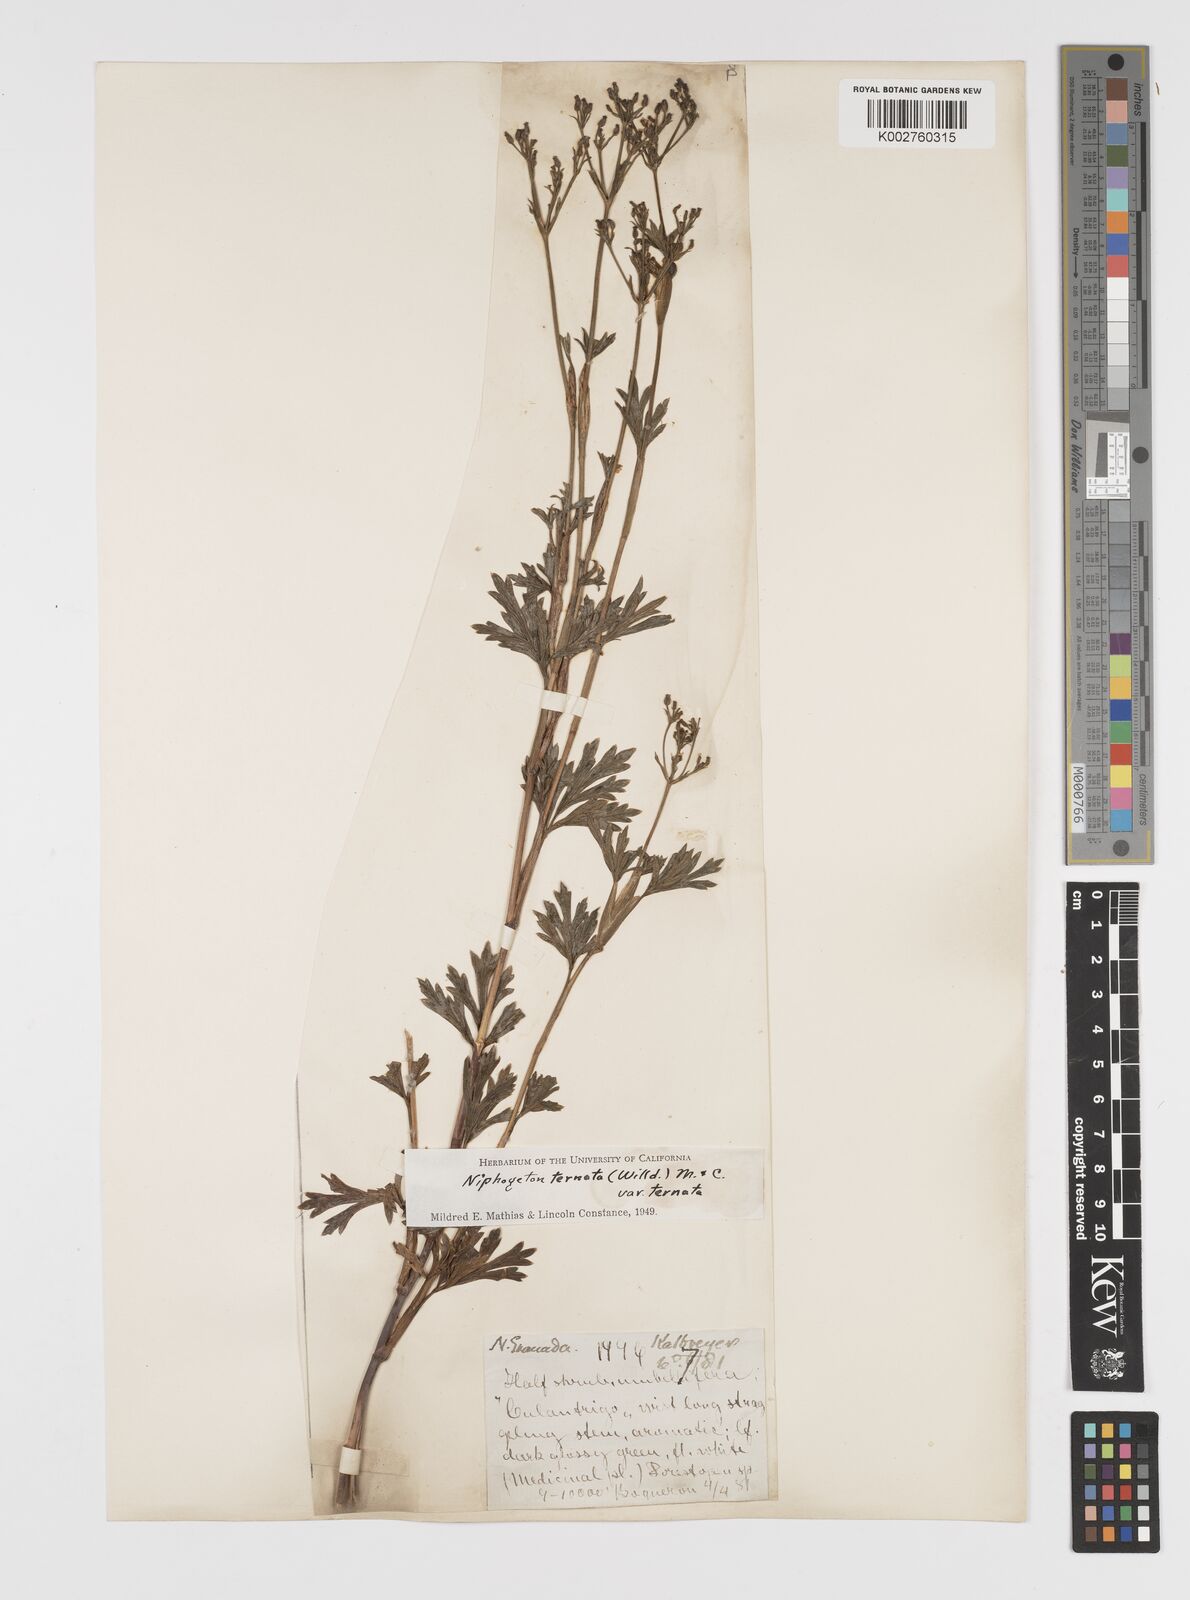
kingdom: Plantae
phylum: Tracheophyta
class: Magnoliopsida
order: Apiales
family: Apiaceae
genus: Niphogeton
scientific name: Niphogeton ternata
